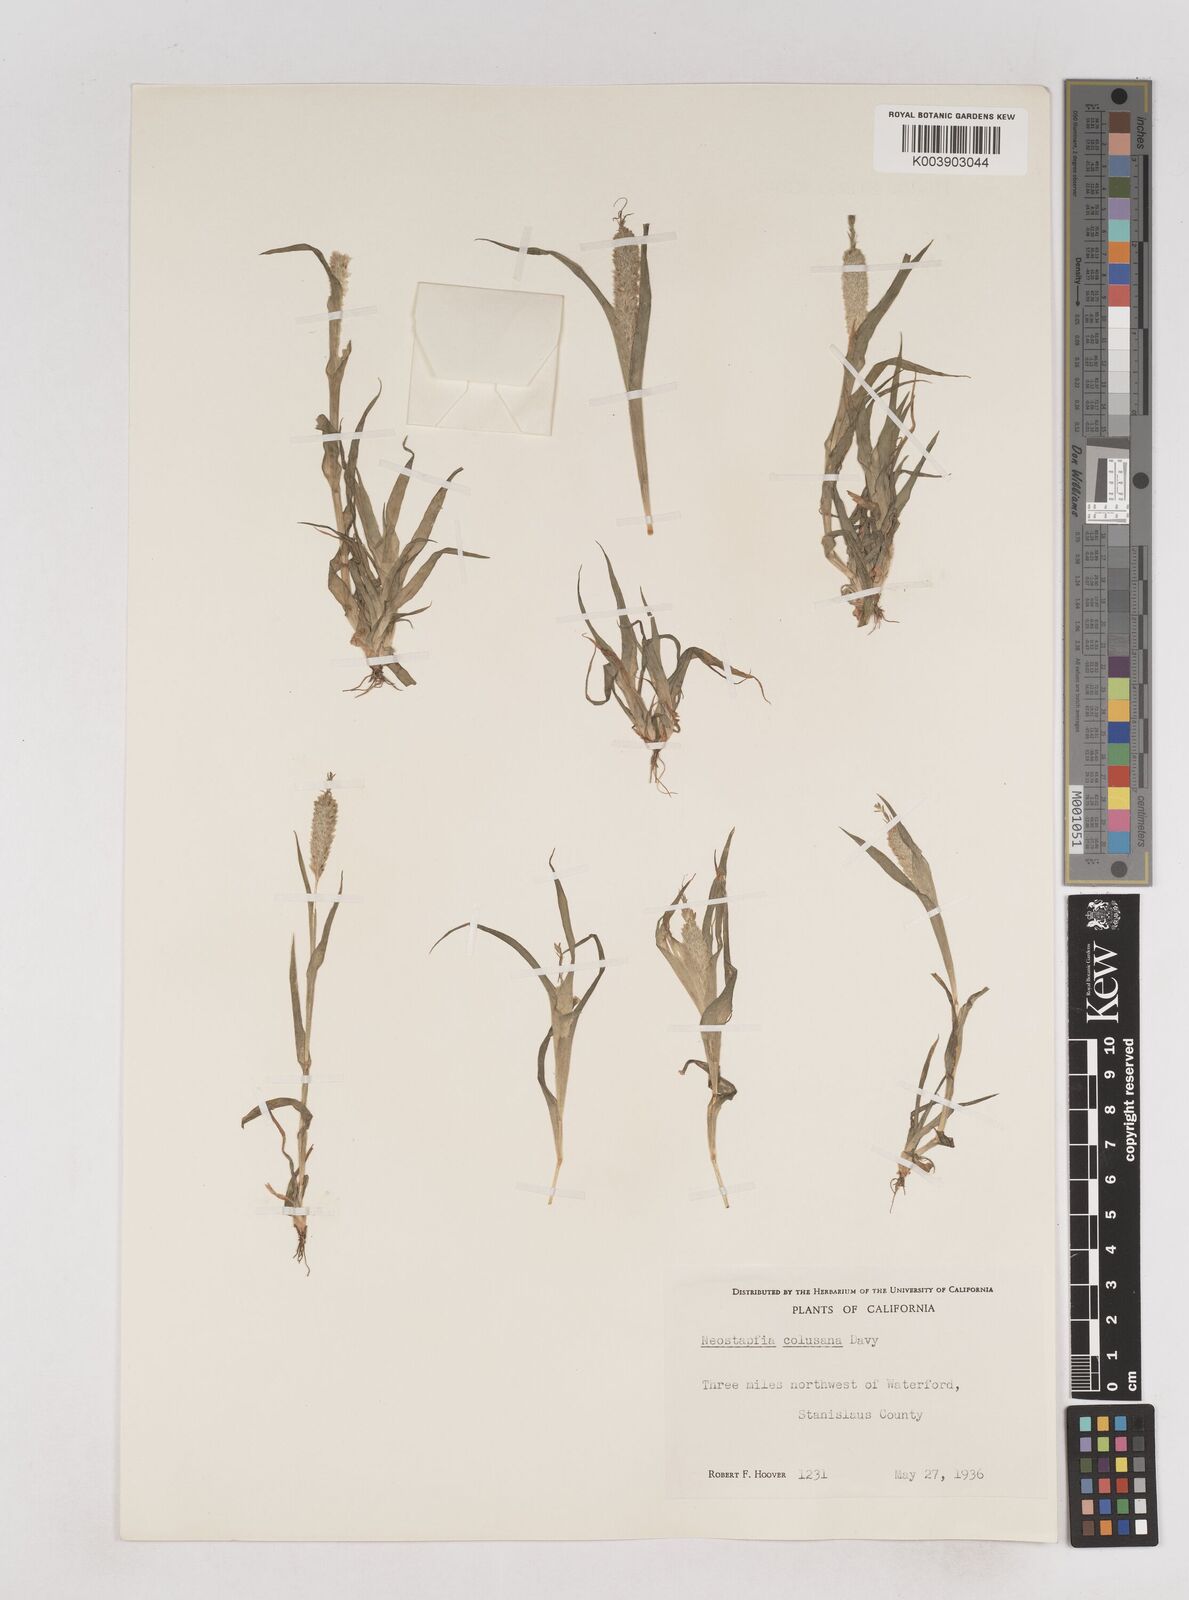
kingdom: Plantae
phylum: Tracheophyta
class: Liliopsida
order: Poales
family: Poaceae
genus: Neostapfia
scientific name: Neostapfia colusana
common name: Colusa grass
